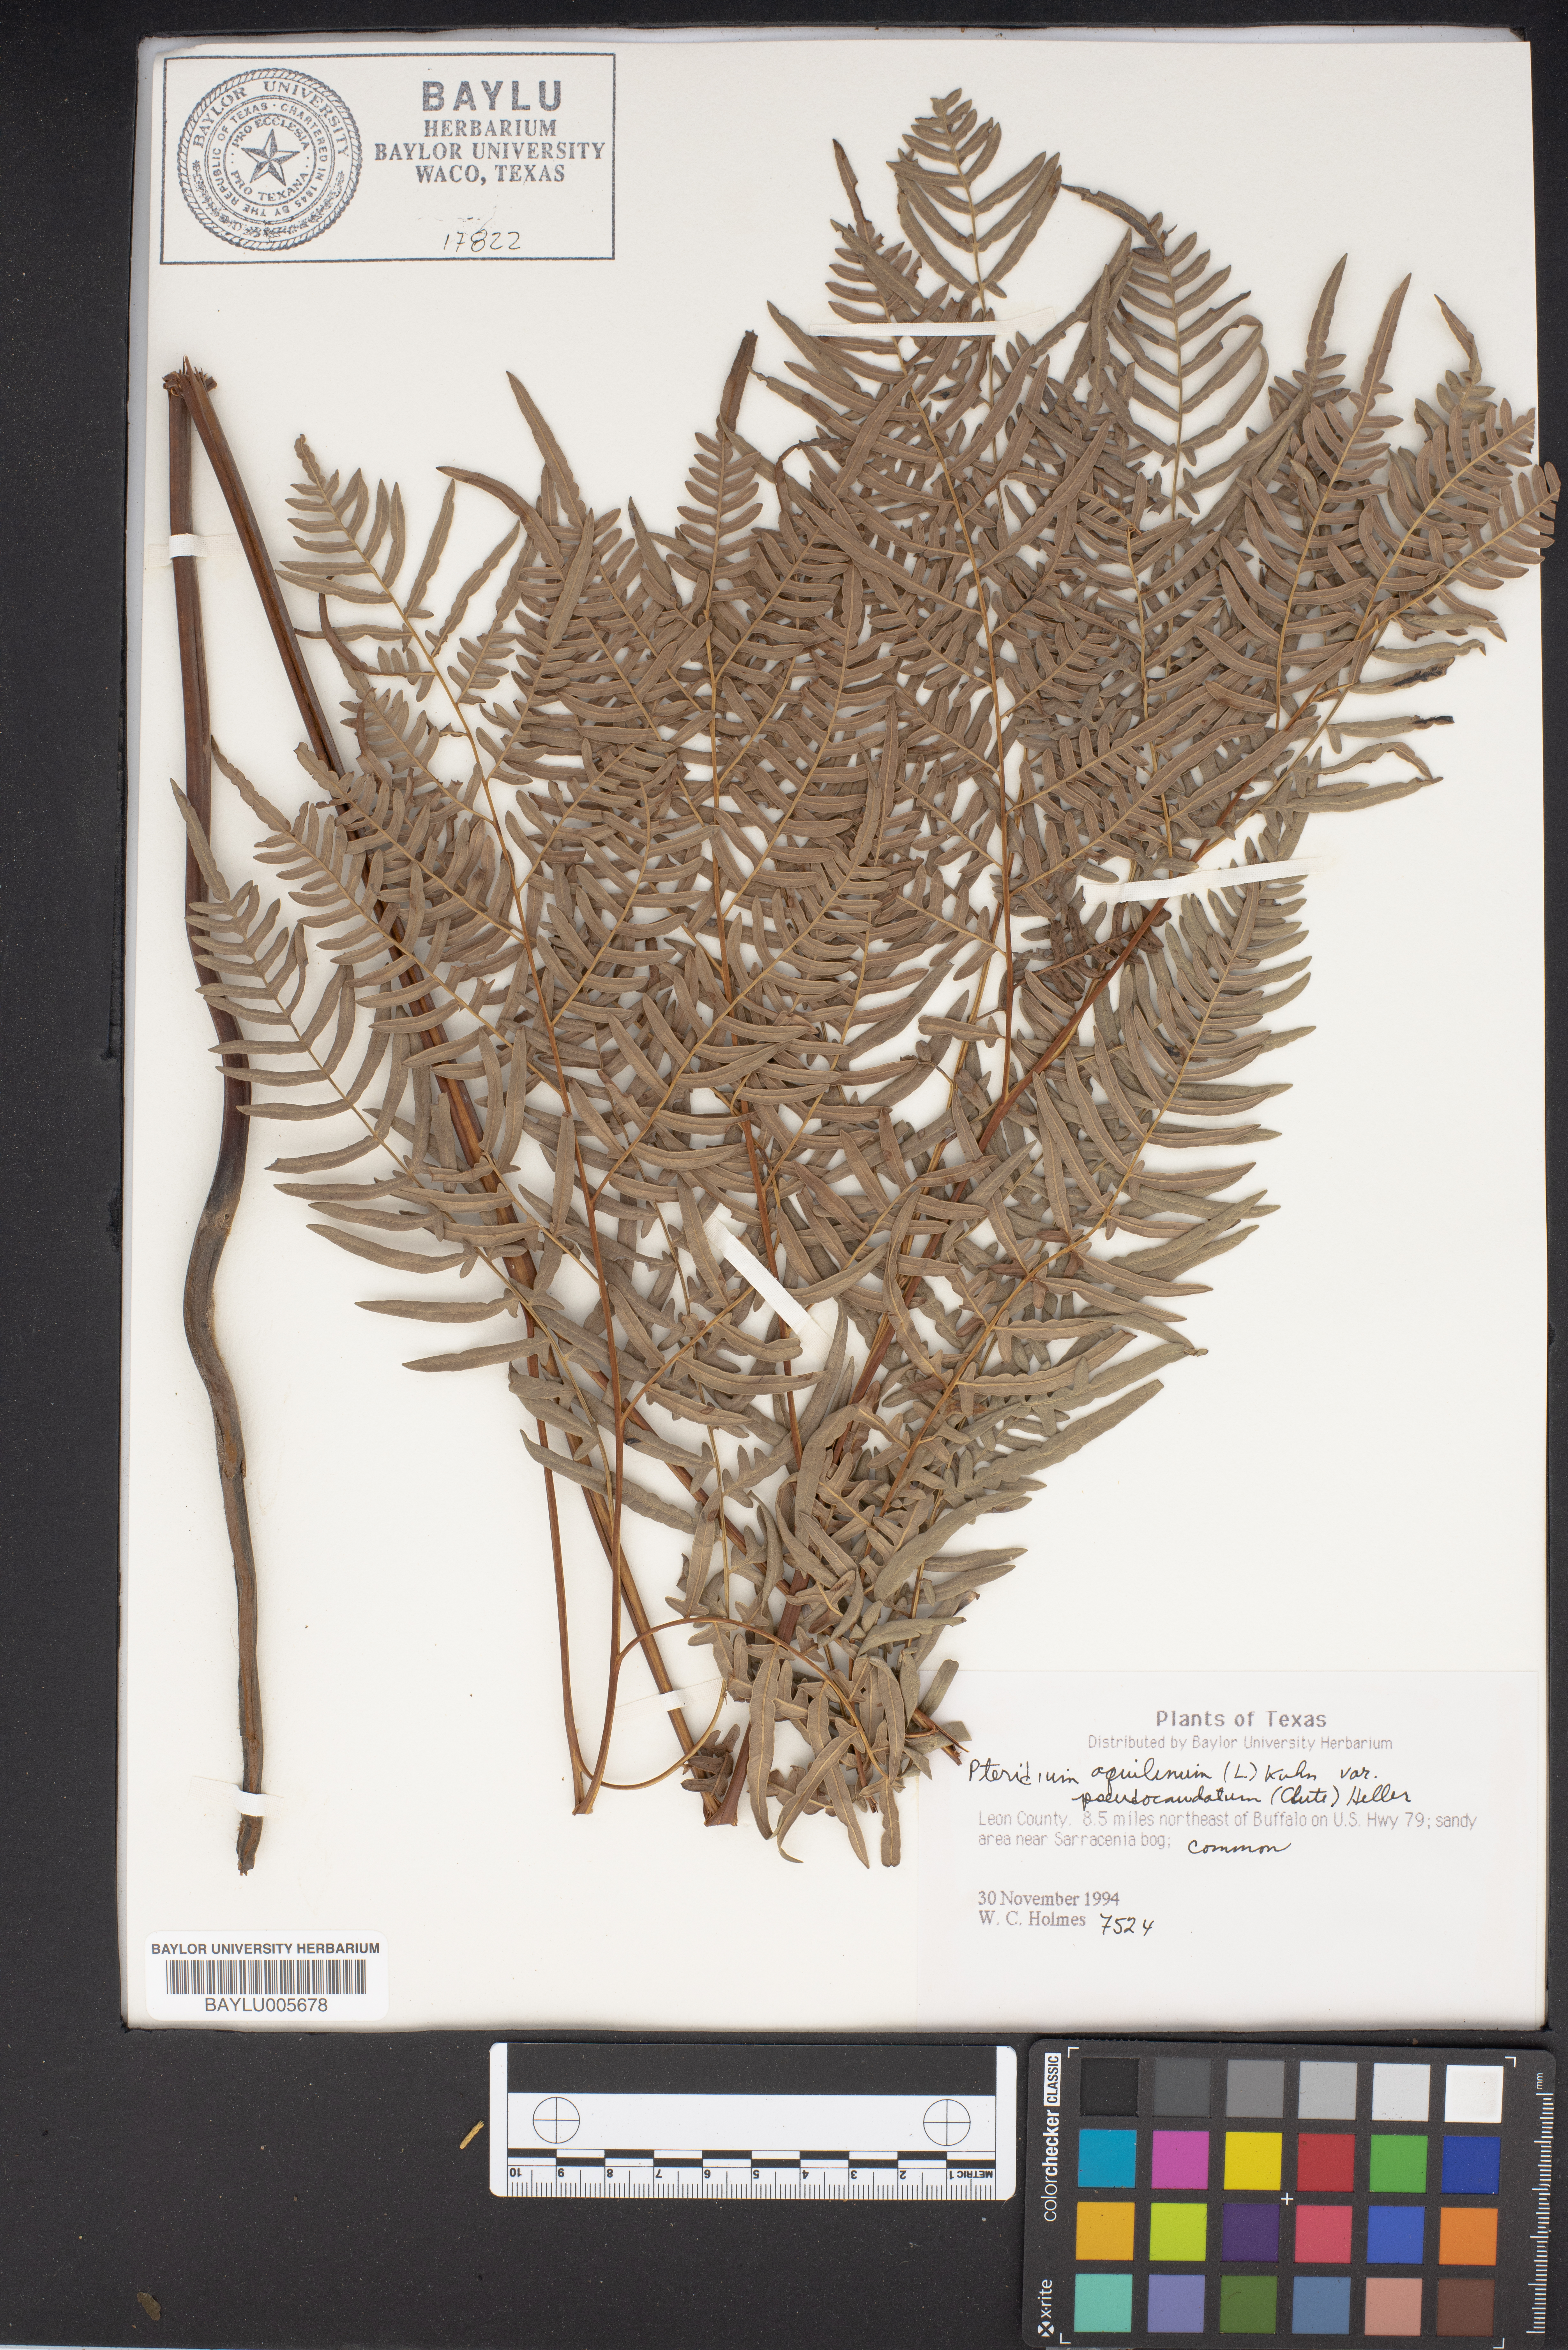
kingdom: Plantae
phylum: Tracheophyta
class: Polypodiopsida
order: Polypodiales
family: Dennstaedtiaceae
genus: Pteridium
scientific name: Pteridium aquilinum
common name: Bracken
